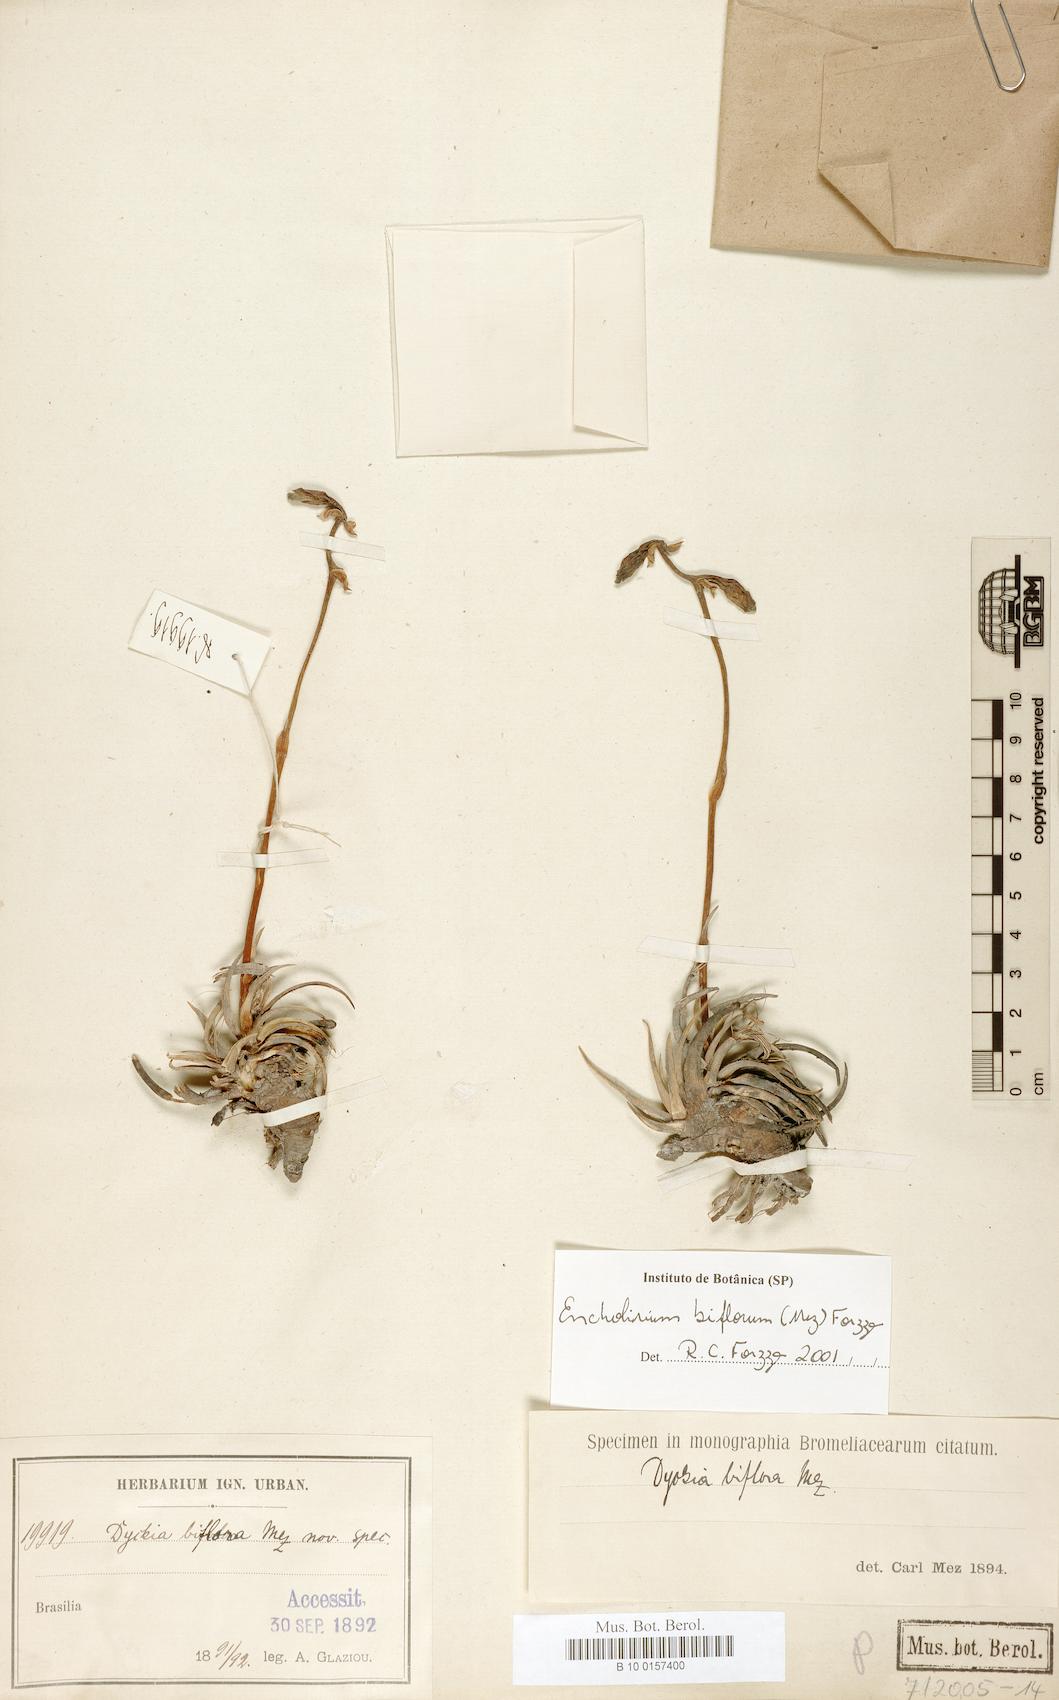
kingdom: Plantae
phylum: Tracheophyta
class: Liliopsida
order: Poales
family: Bromeliaceae
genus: Encholirium
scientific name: Encholirium biflorum
